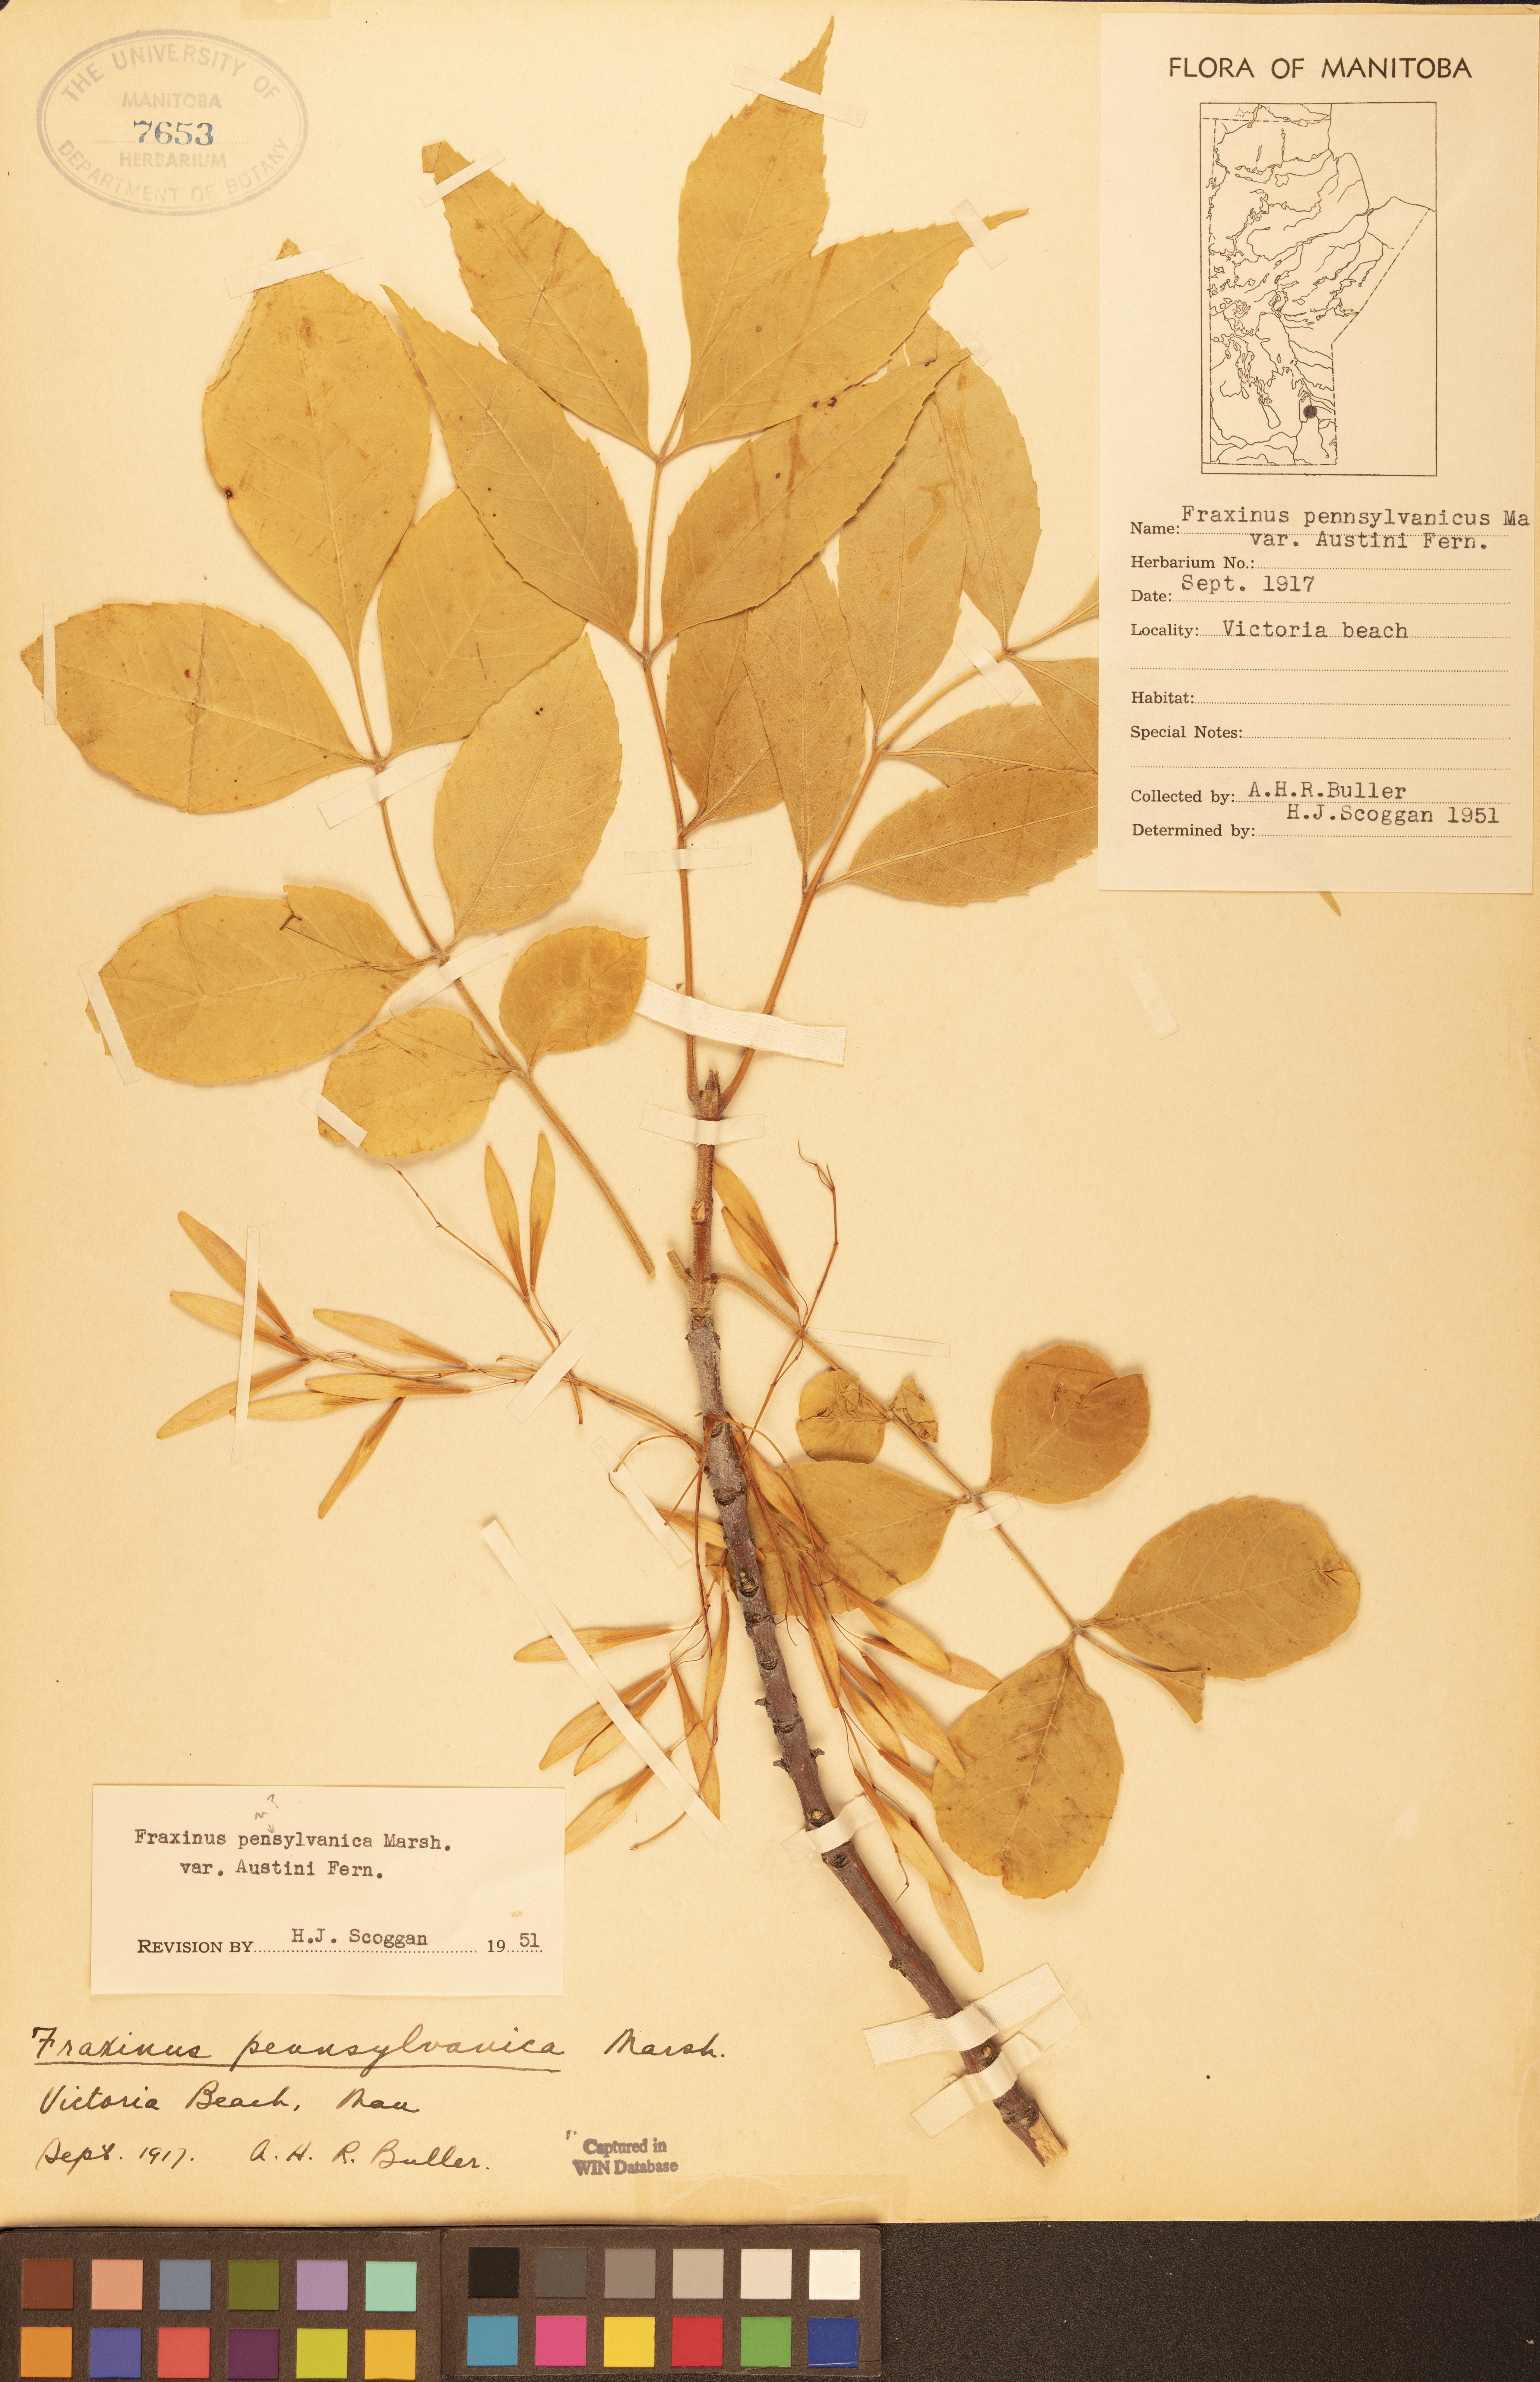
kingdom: Plantae
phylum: Tracheophyta
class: Magnoliopsida
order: Lamiales
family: Oleaceae
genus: Fraxinus
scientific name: Fraxinus pennsylvanica
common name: Green ash
